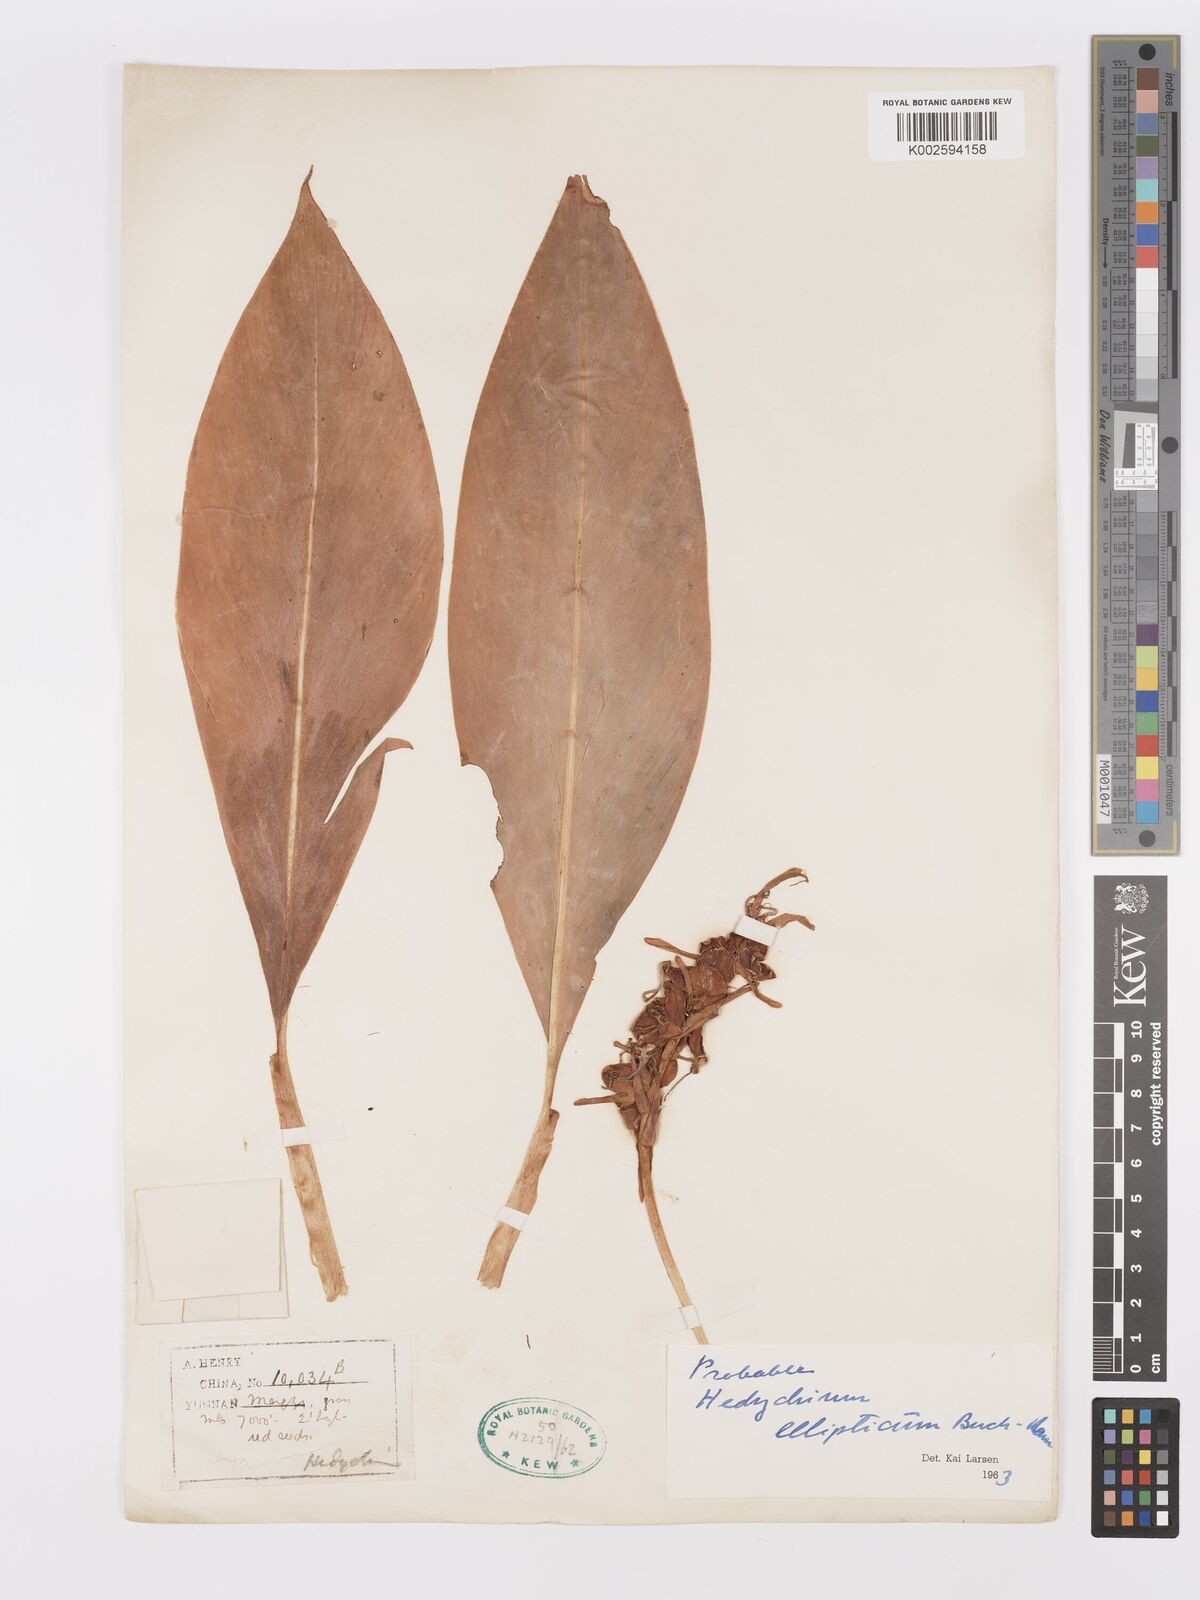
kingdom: Plantae
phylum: Tracheophyta
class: Liliopsida
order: Zingiberales
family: Zingiberaceae
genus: Hedychium
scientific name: Hedychium ellipticum
